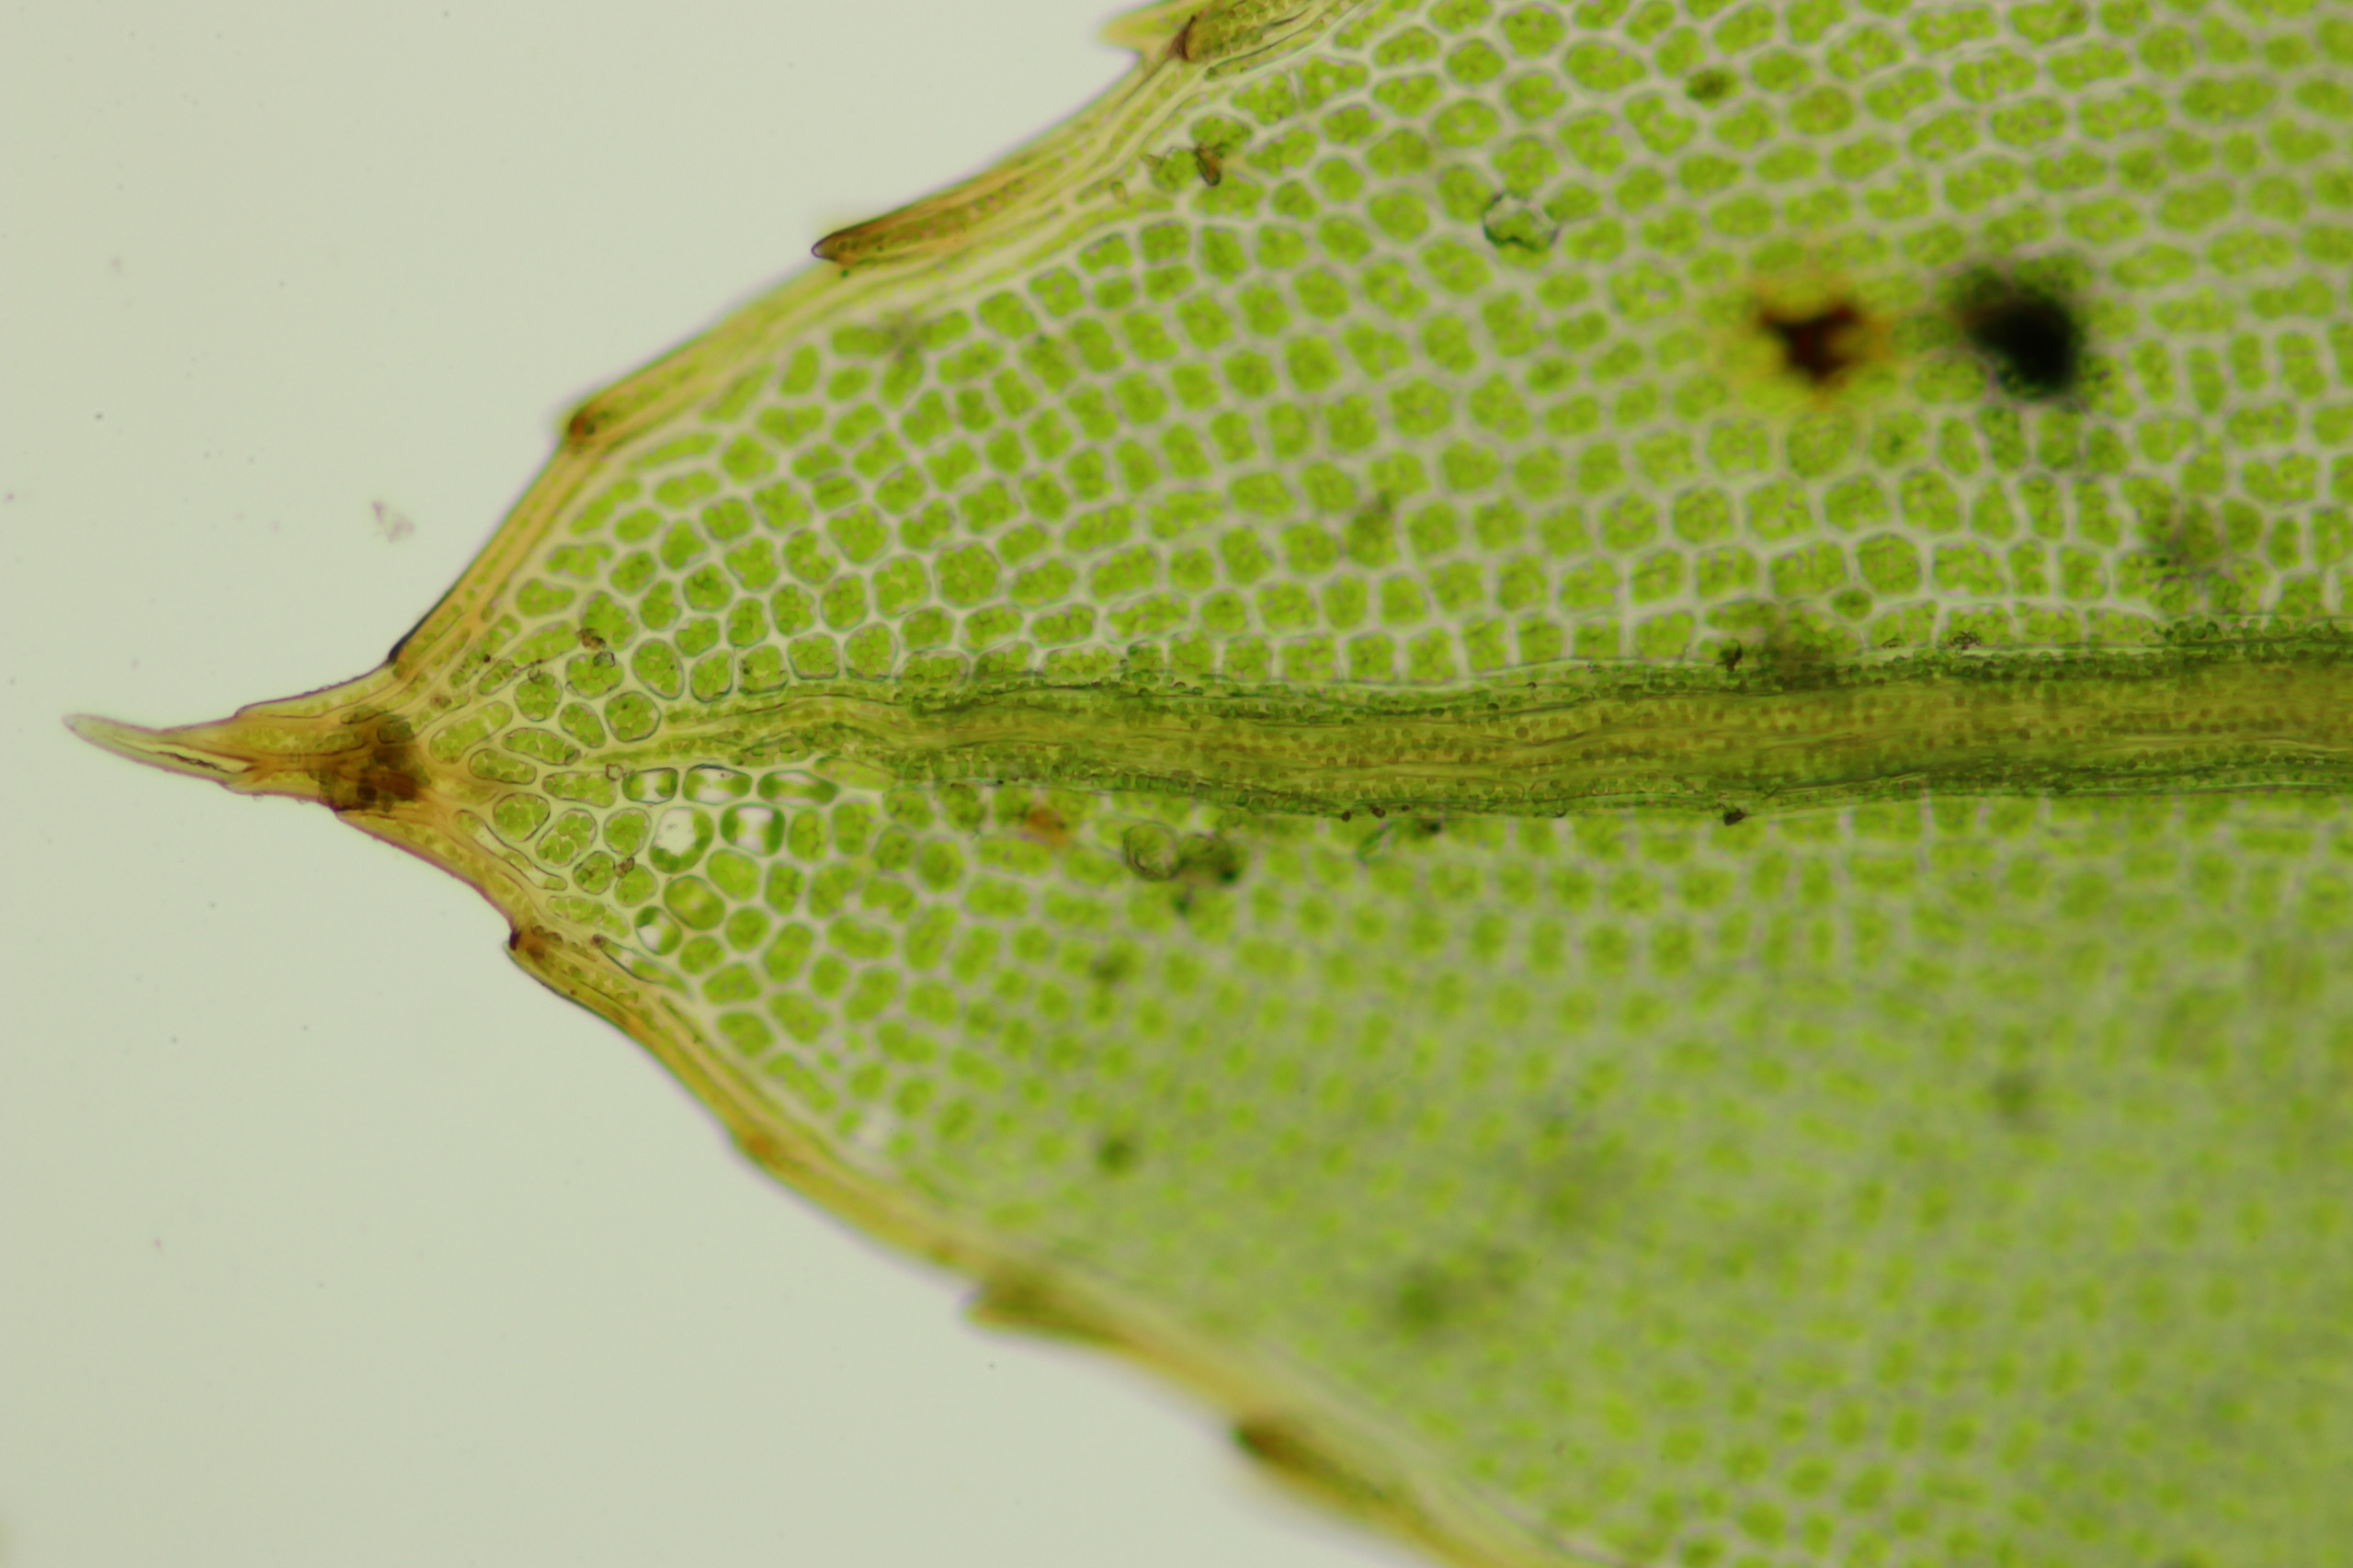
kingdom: Plantae
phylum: Bryophyta
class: Bryopsida
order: Bryales
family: Mniaceae
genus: Mnium
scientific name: Mnium marginatum
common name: Rødlig stjernemos
